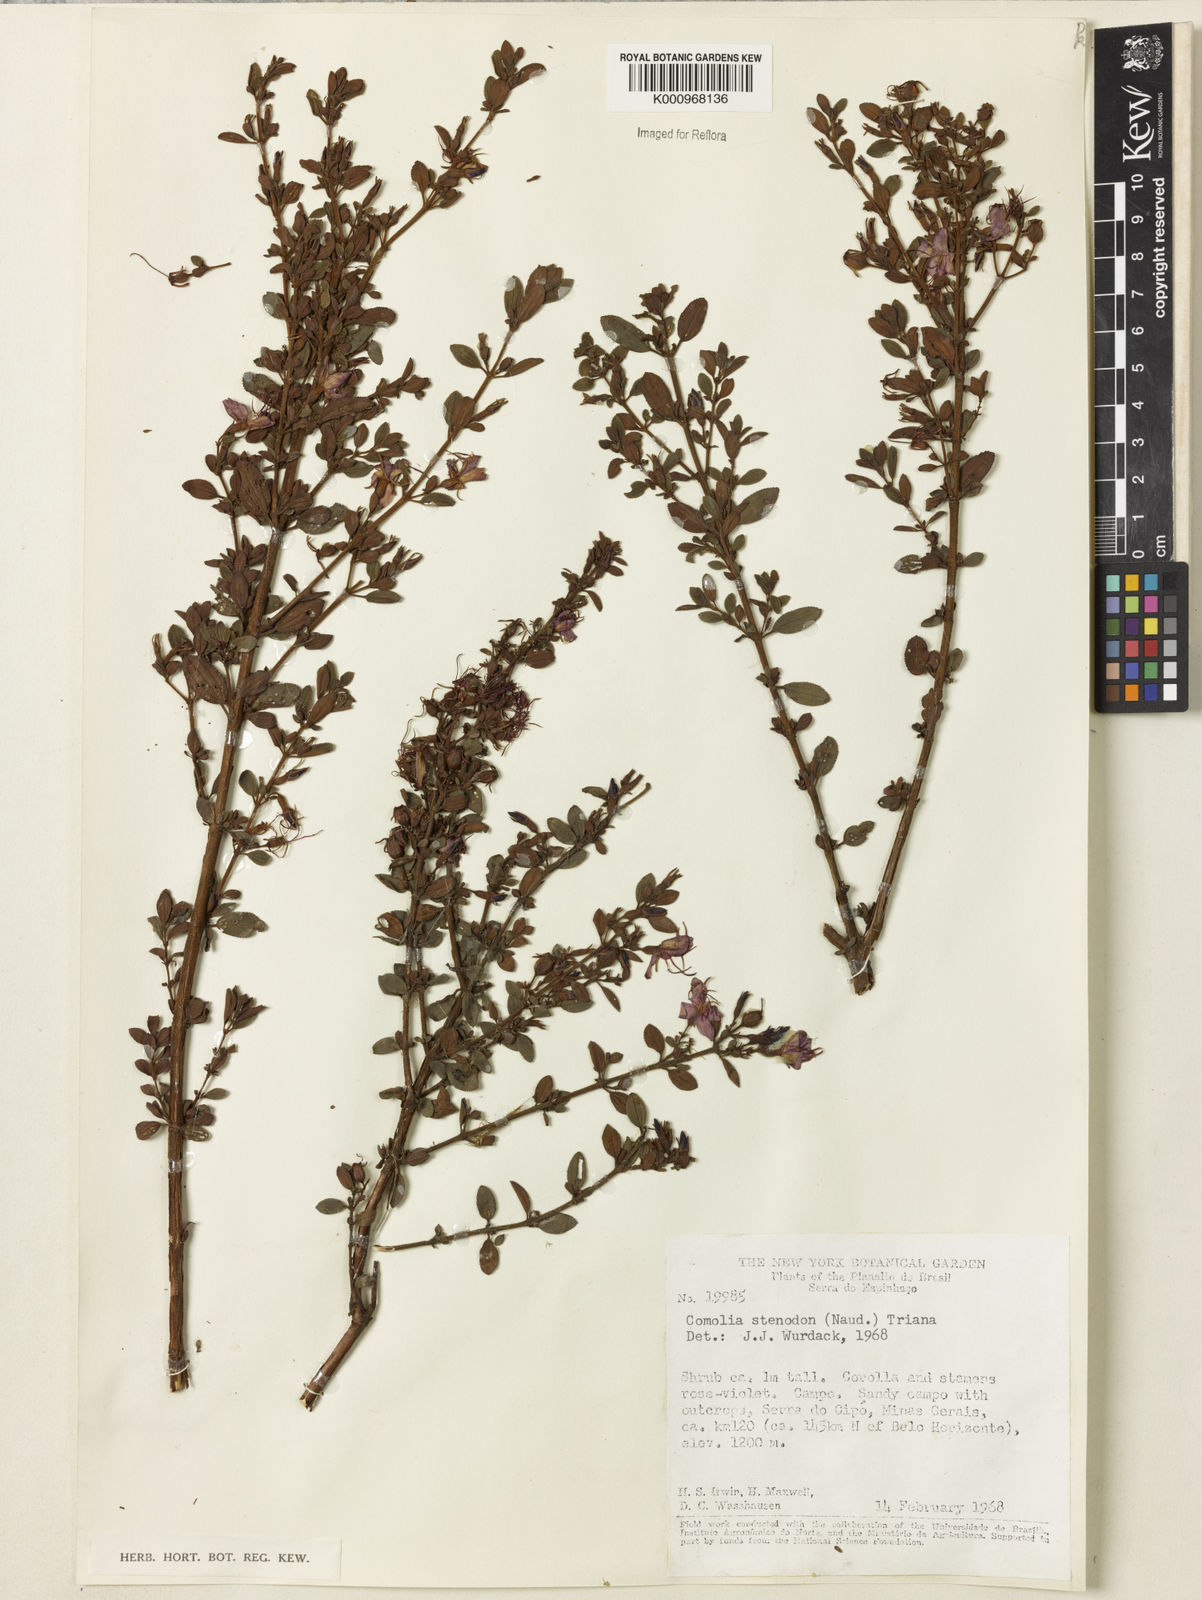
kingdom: Plantae
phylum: Tracheophyta
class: Magnoliopsida
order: Myrtales
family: Melastomataceae
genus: Fritzschia
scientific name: Fritzschia stenodon
